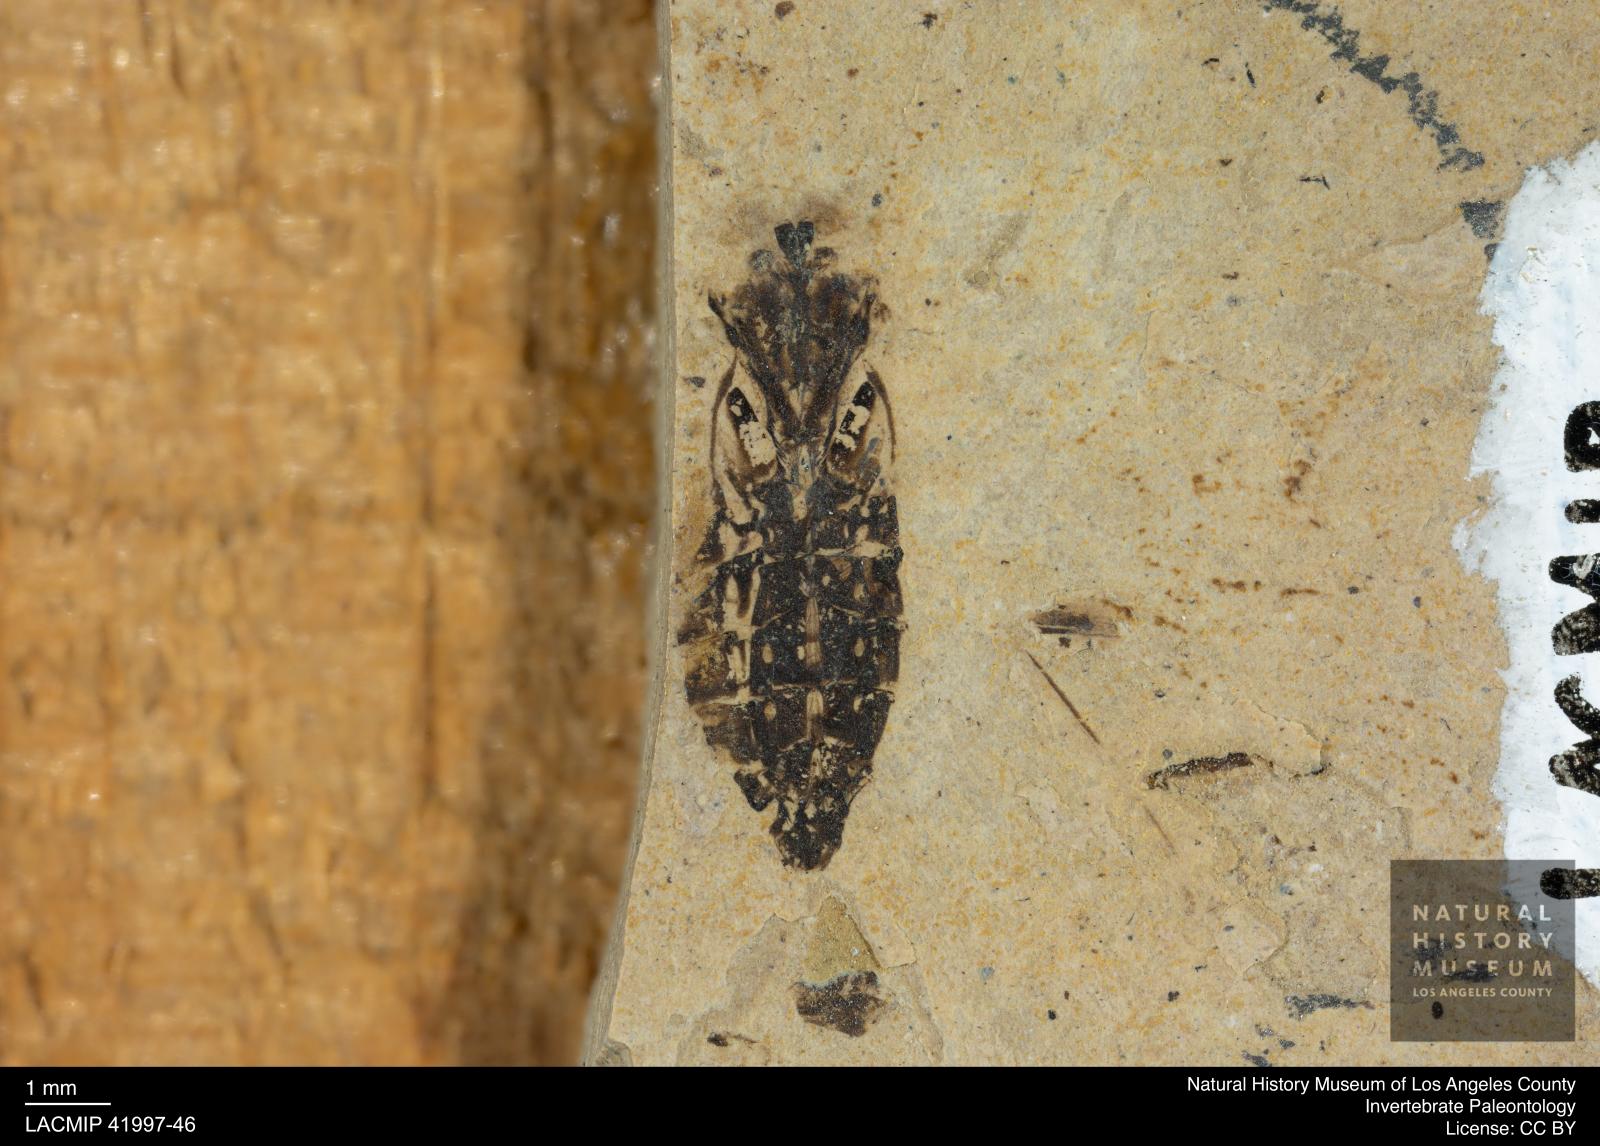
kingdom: Animalia
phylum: Arthropoda
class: Insecta
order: Hemiptera
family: Notonectidae
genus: Anisops
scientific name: Anisops Notonecta deichmuelleri
